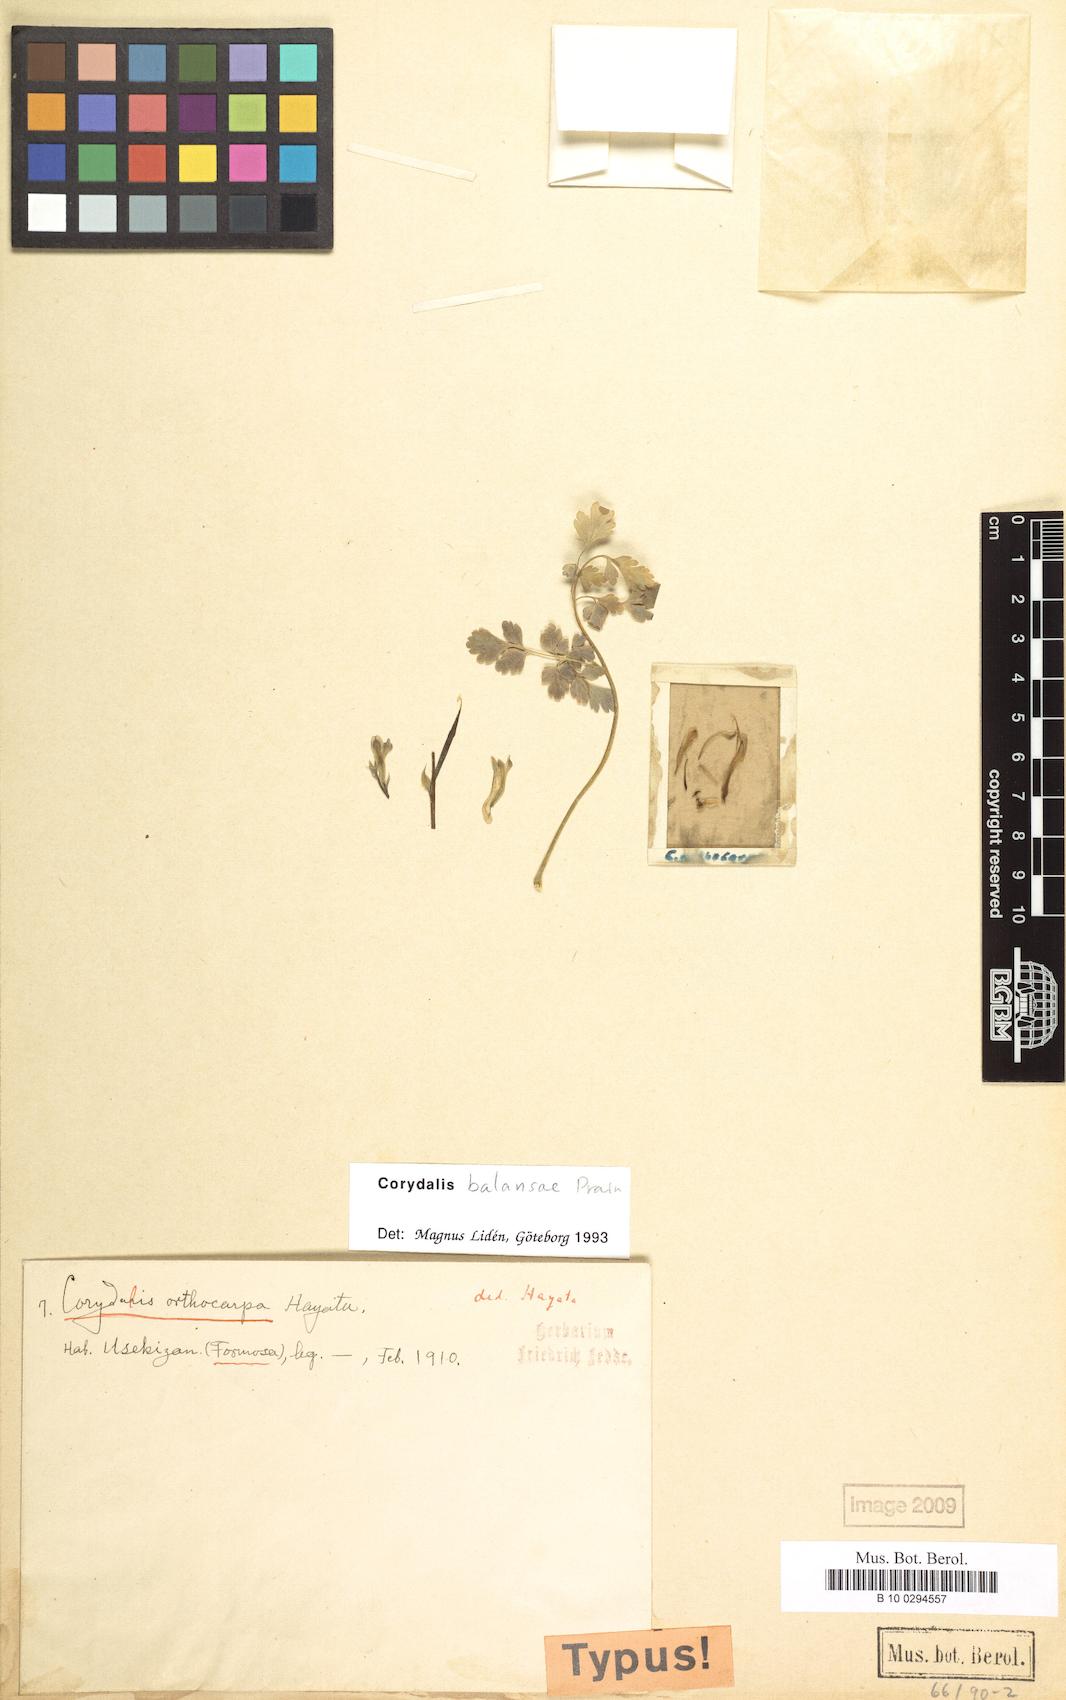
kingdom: Plantae
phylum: Tracheophyta
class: Magnoliopsida
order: Ranunculales
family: Papaveraceae
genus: Corydalis
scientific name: Corydalis balansae
